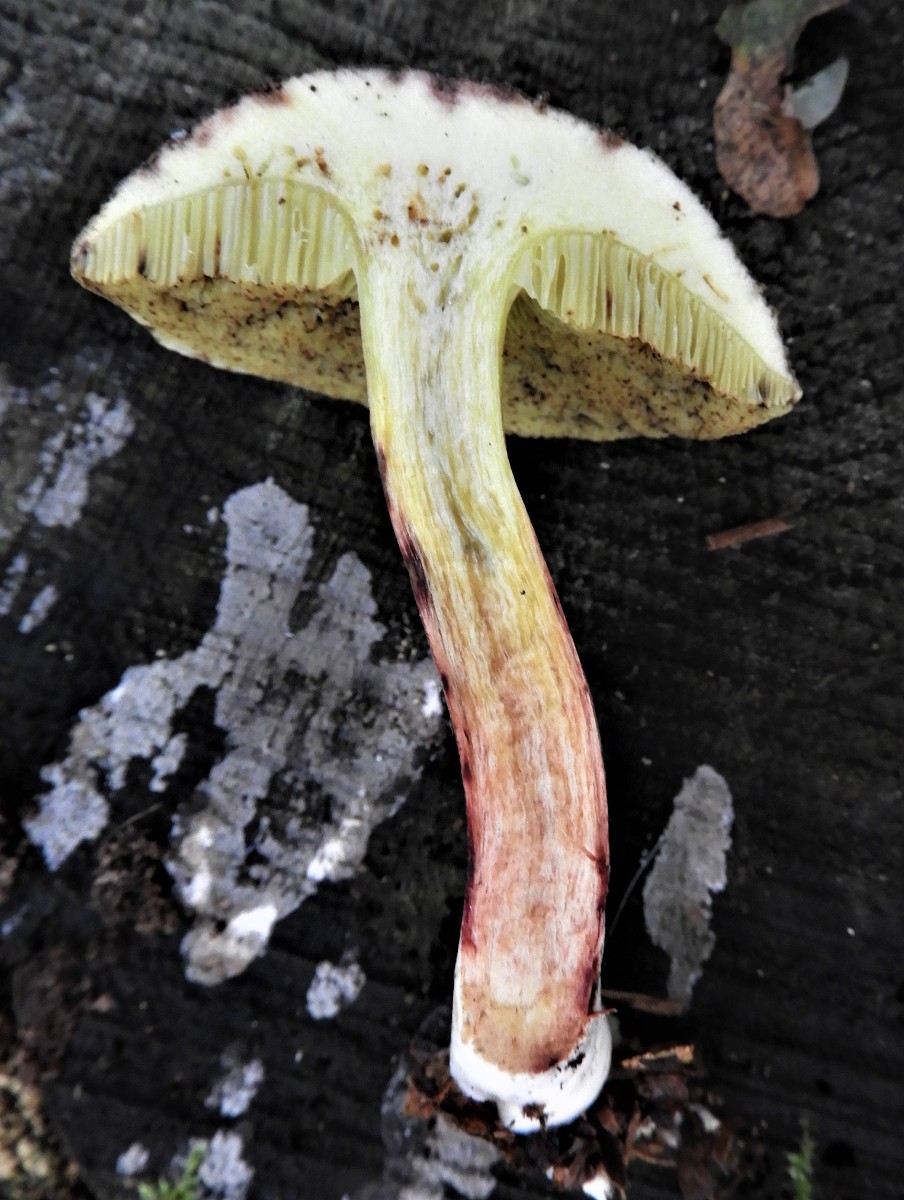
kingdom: Fungi
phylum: Basidiomycota
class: Agaricomycetes
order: Boletales
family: Boletaceae
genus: Xerocomellus
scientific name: Xerocomellus chrysenteron
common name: rødsprukken rørhat
